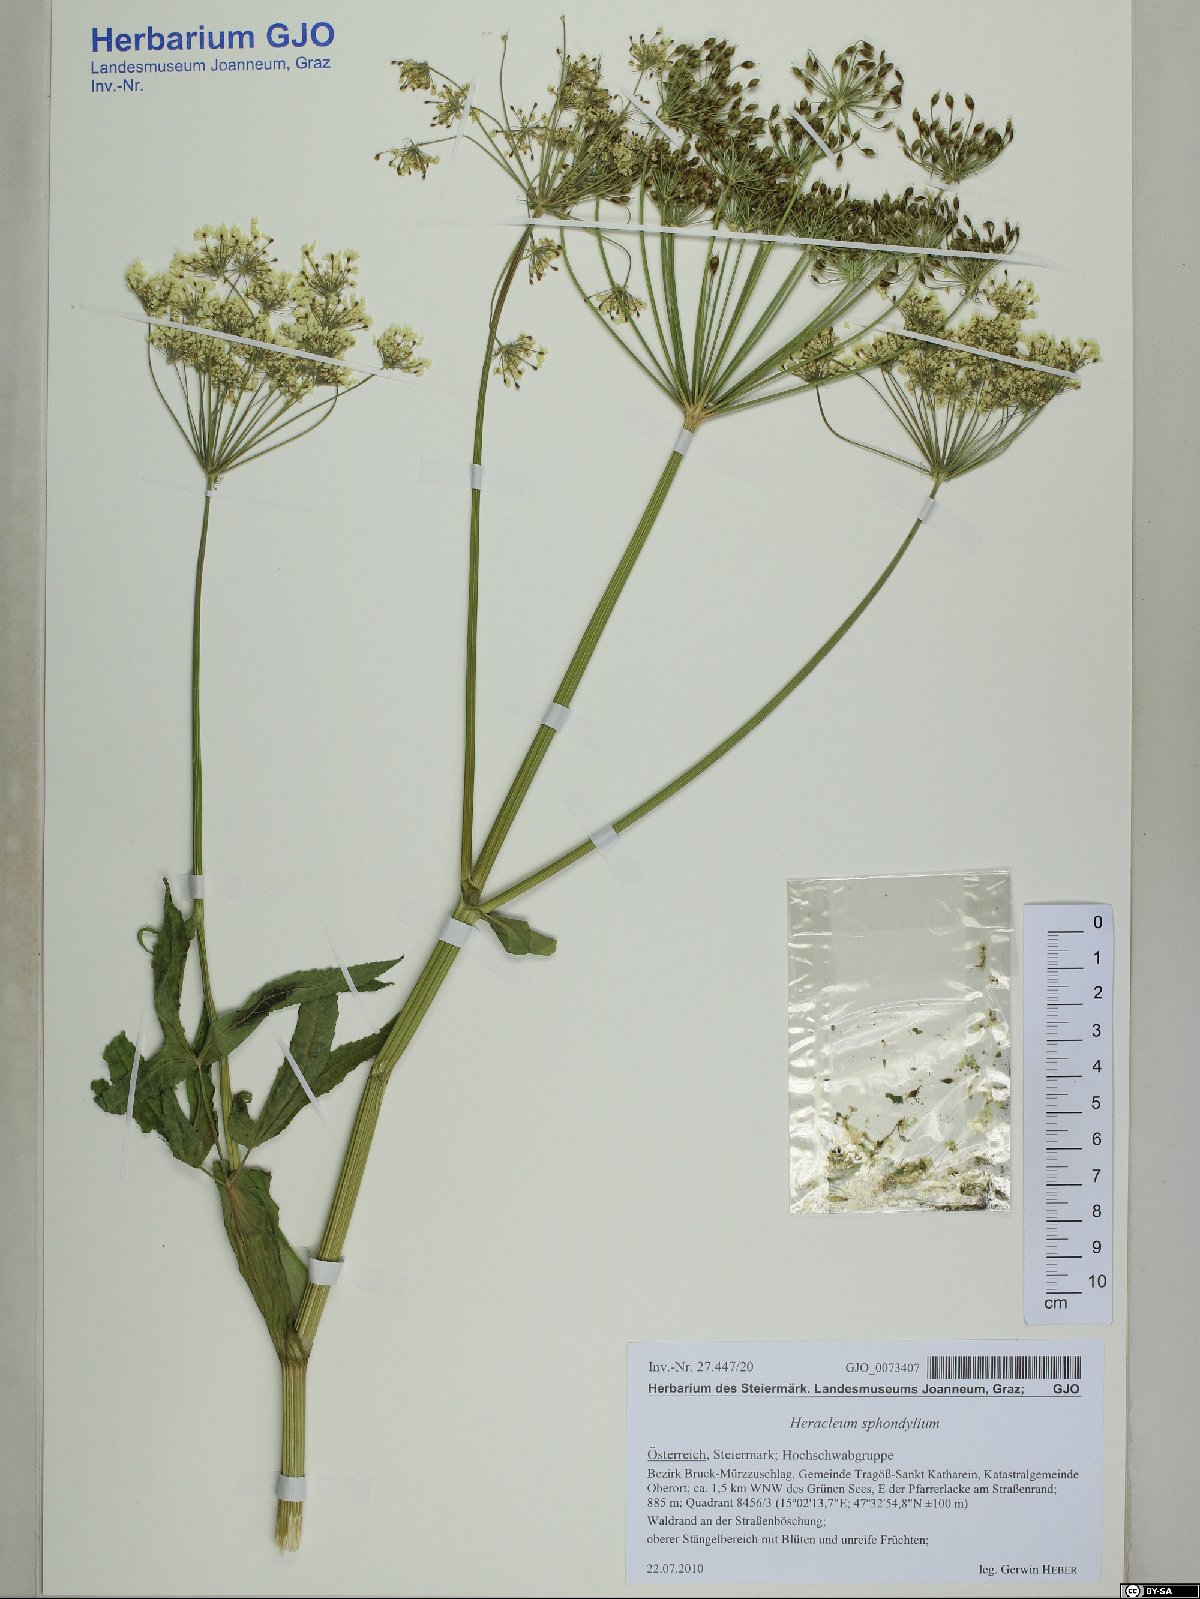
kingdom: Plantae
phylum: Tracheophyta
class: Magnoliopsida
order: Apiales
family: Apiaceae
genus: Heracleum
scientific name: Heracleum sphondylium
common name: Hogweed
